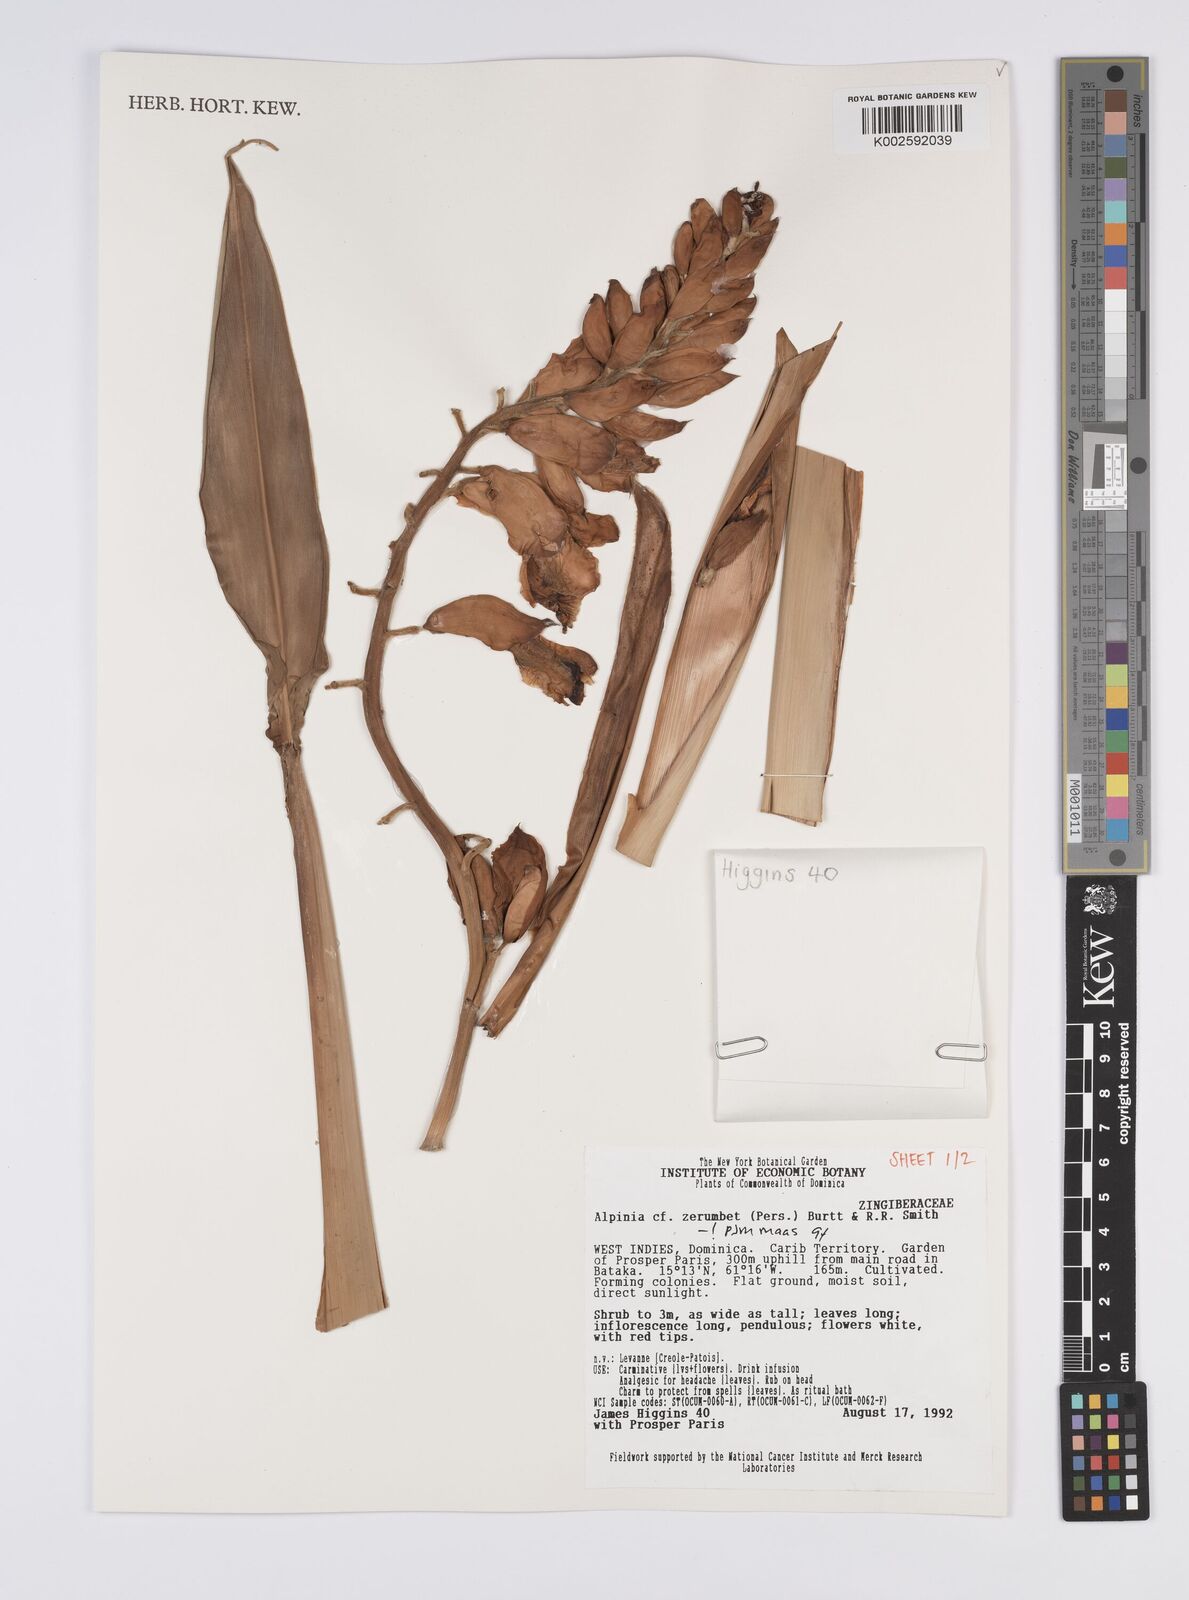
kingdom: Plantae
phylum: Tracheophyta
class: Liliopsida
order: Zingiberales
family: Zingiberaceae
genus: Alpinia
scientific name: Alpinia zerumbet
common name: Shellplant
